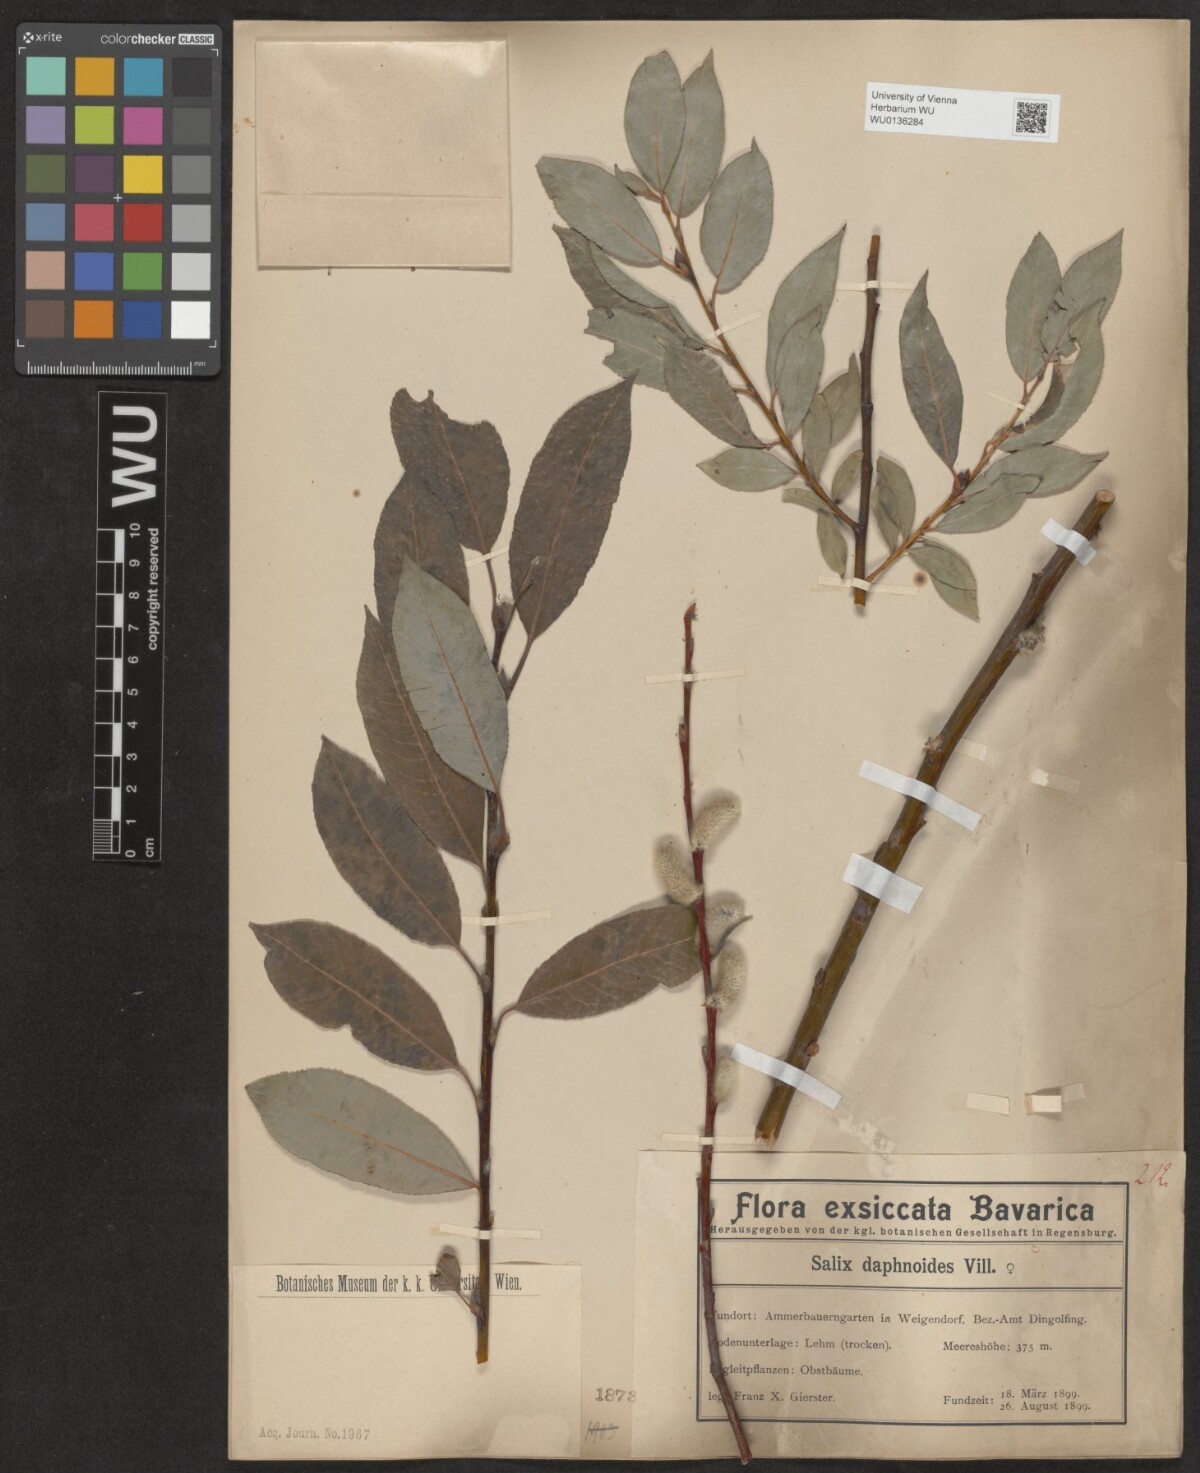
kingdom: Plantae
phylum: Tracheophyta
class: Magnoliopsida
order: Malpighiales
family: Salicaceae
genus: Salix
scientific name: Salix daphnoides
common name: European violet-willow
